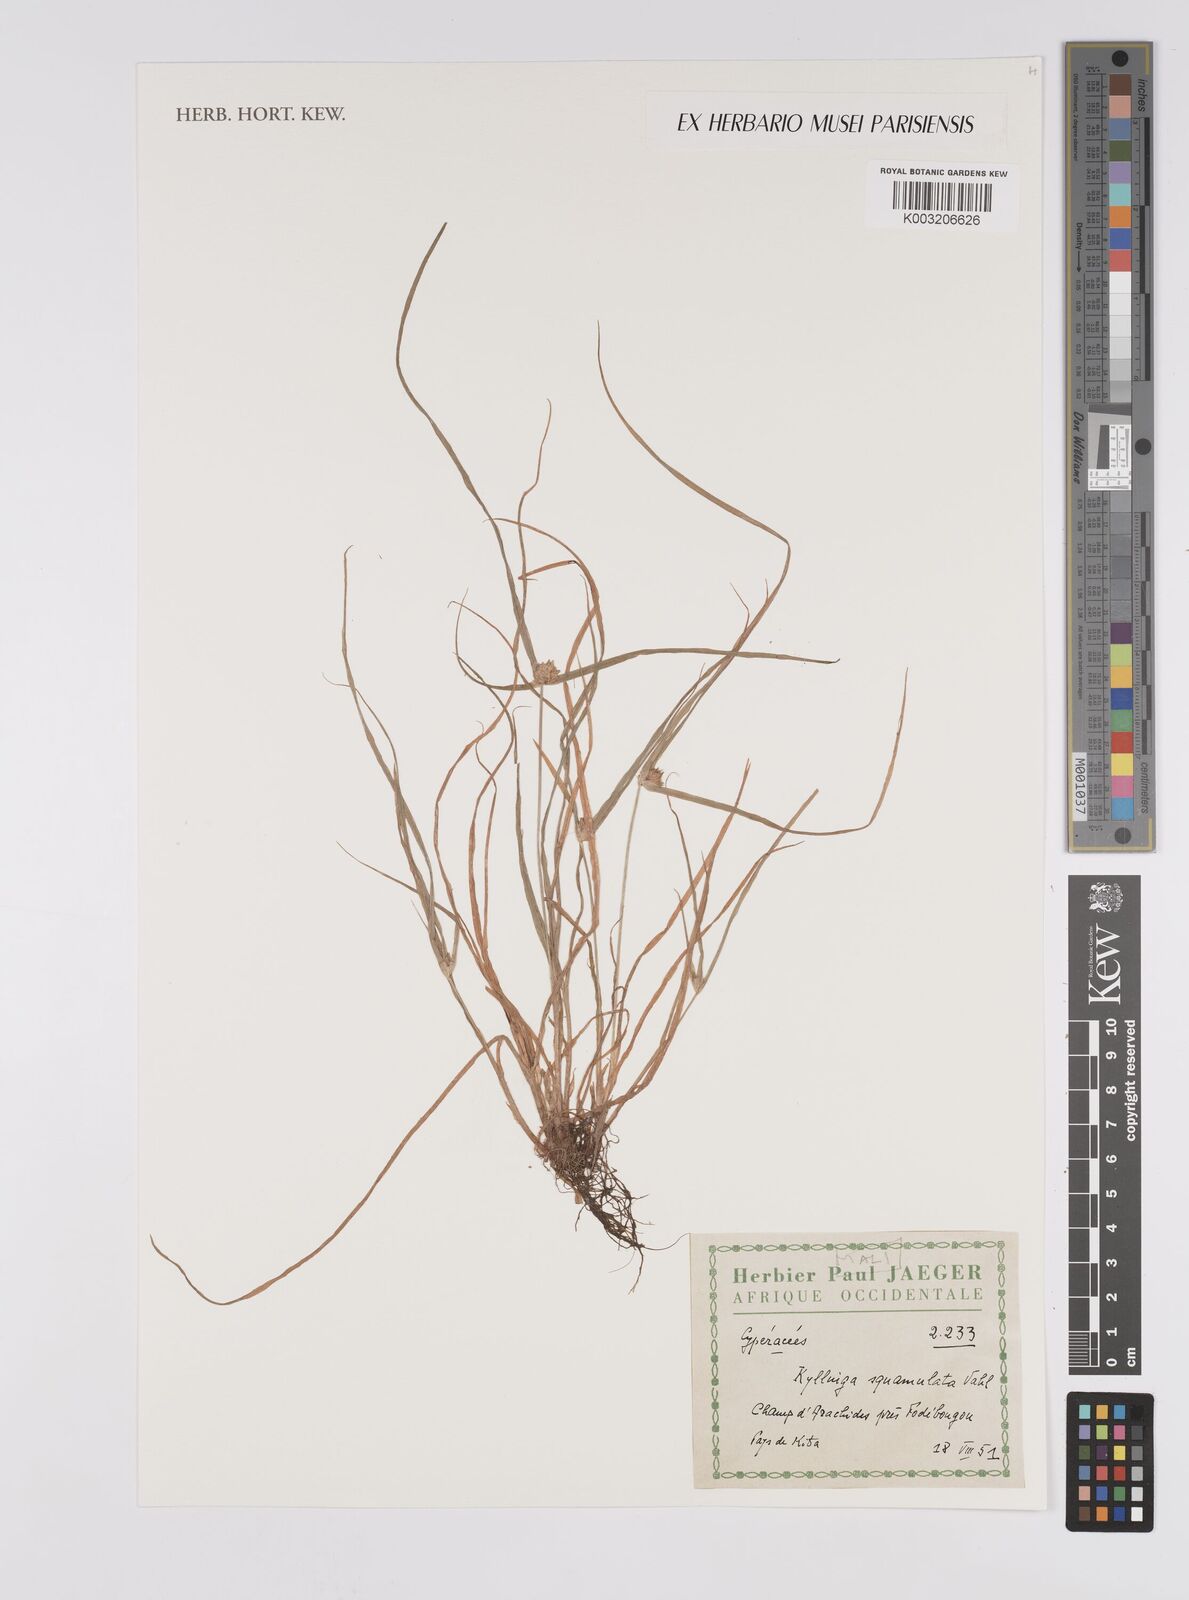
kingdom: Plantae
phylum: Tracheophyta
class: Liliopsida
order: Poales
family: Cyperaceae
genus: Cyperus
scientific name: Cyperus distans
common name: Slender cyperus
